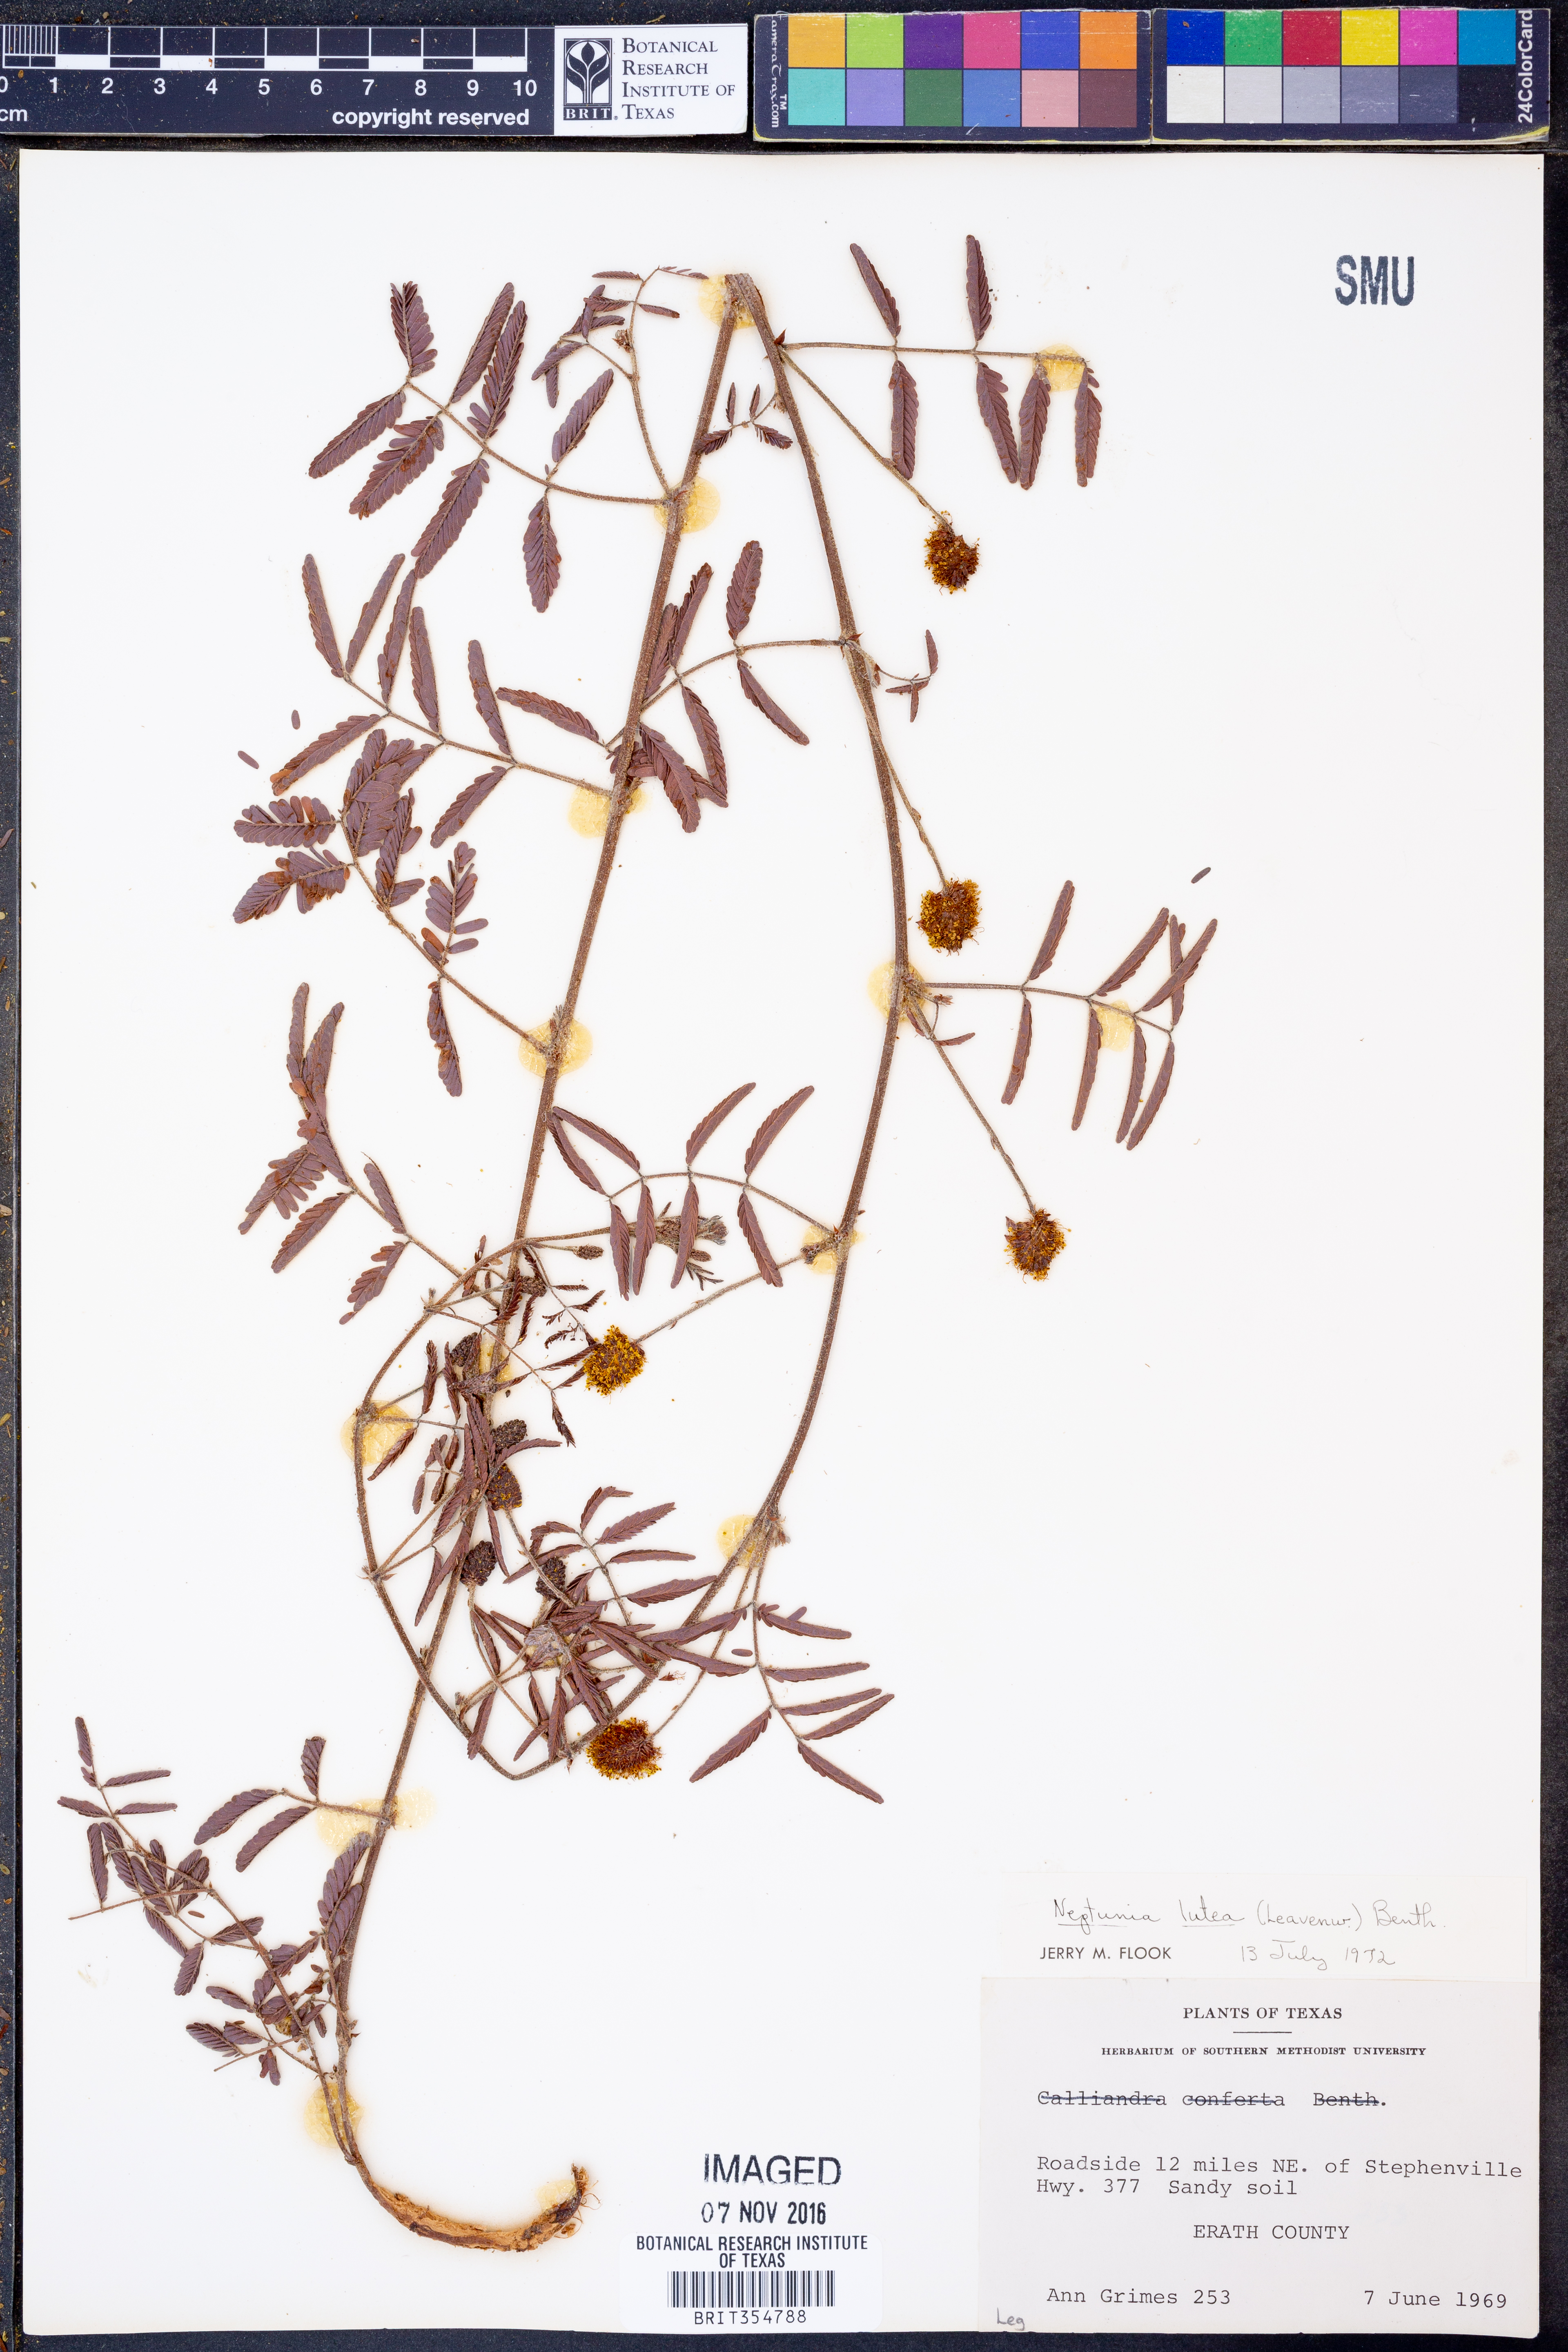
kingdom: Plantae
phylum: Tracheophyta
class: Magnoliopsida
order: Fabales
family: Fabaceae
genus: Neptunia
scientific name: Neptunia lutea
